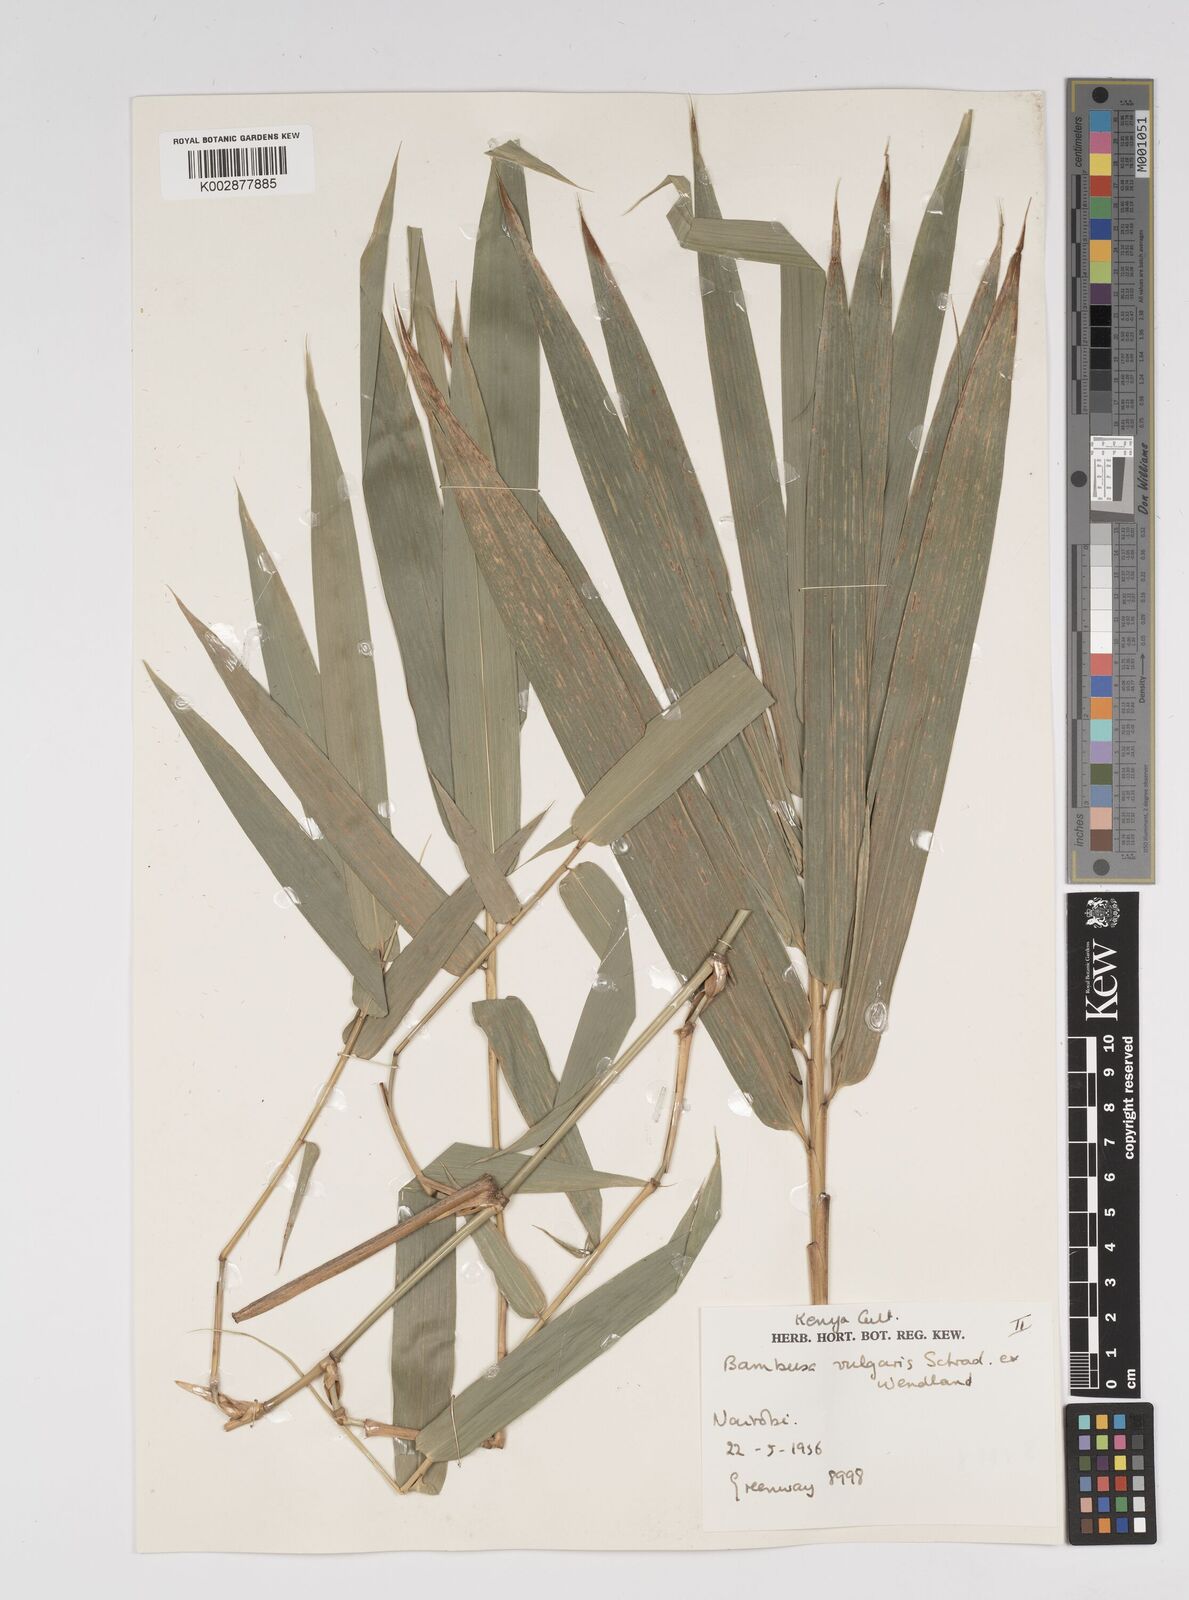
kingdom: Plantae
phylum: Tracheophyta
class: Liliopsida
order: Poales
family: Poaceae
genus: Bambusa
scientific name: Bambusa balcooa
